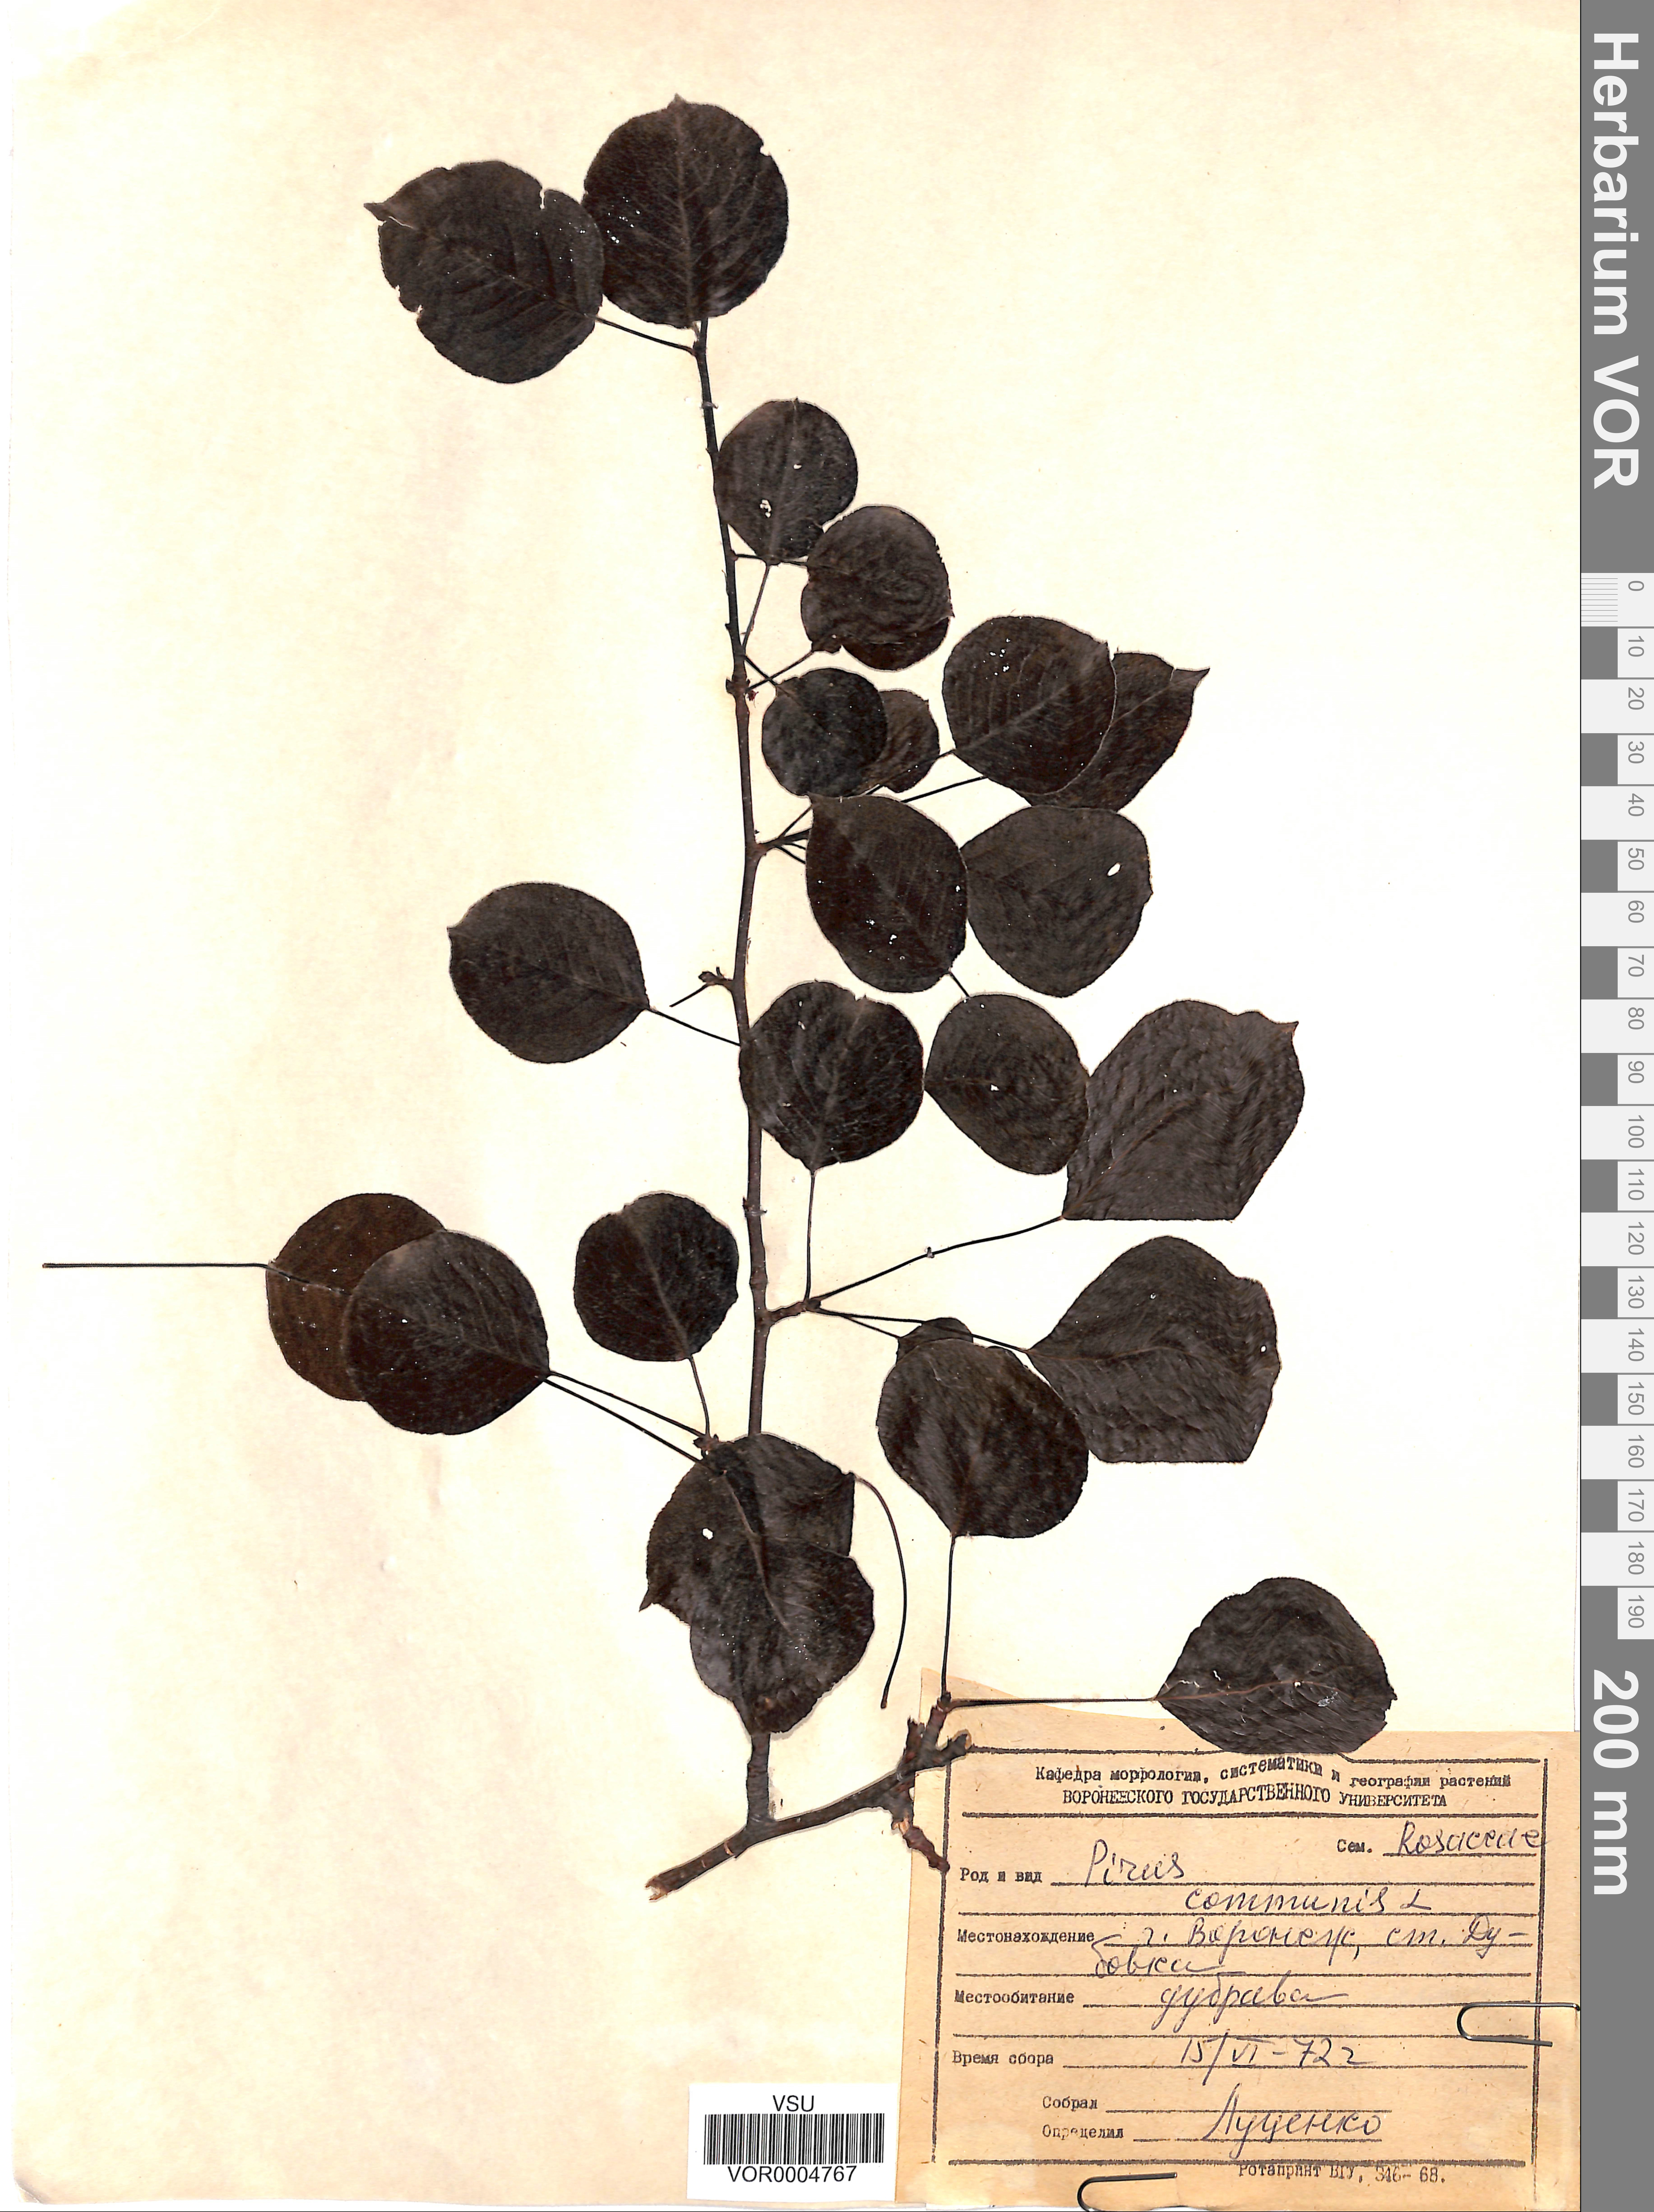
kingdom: Plantae
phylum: Tracheophyta
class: Magnoliopsida
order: Rosales
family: Rosaceae
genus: Pyrus
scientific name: Pyrus communis
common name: Pear
